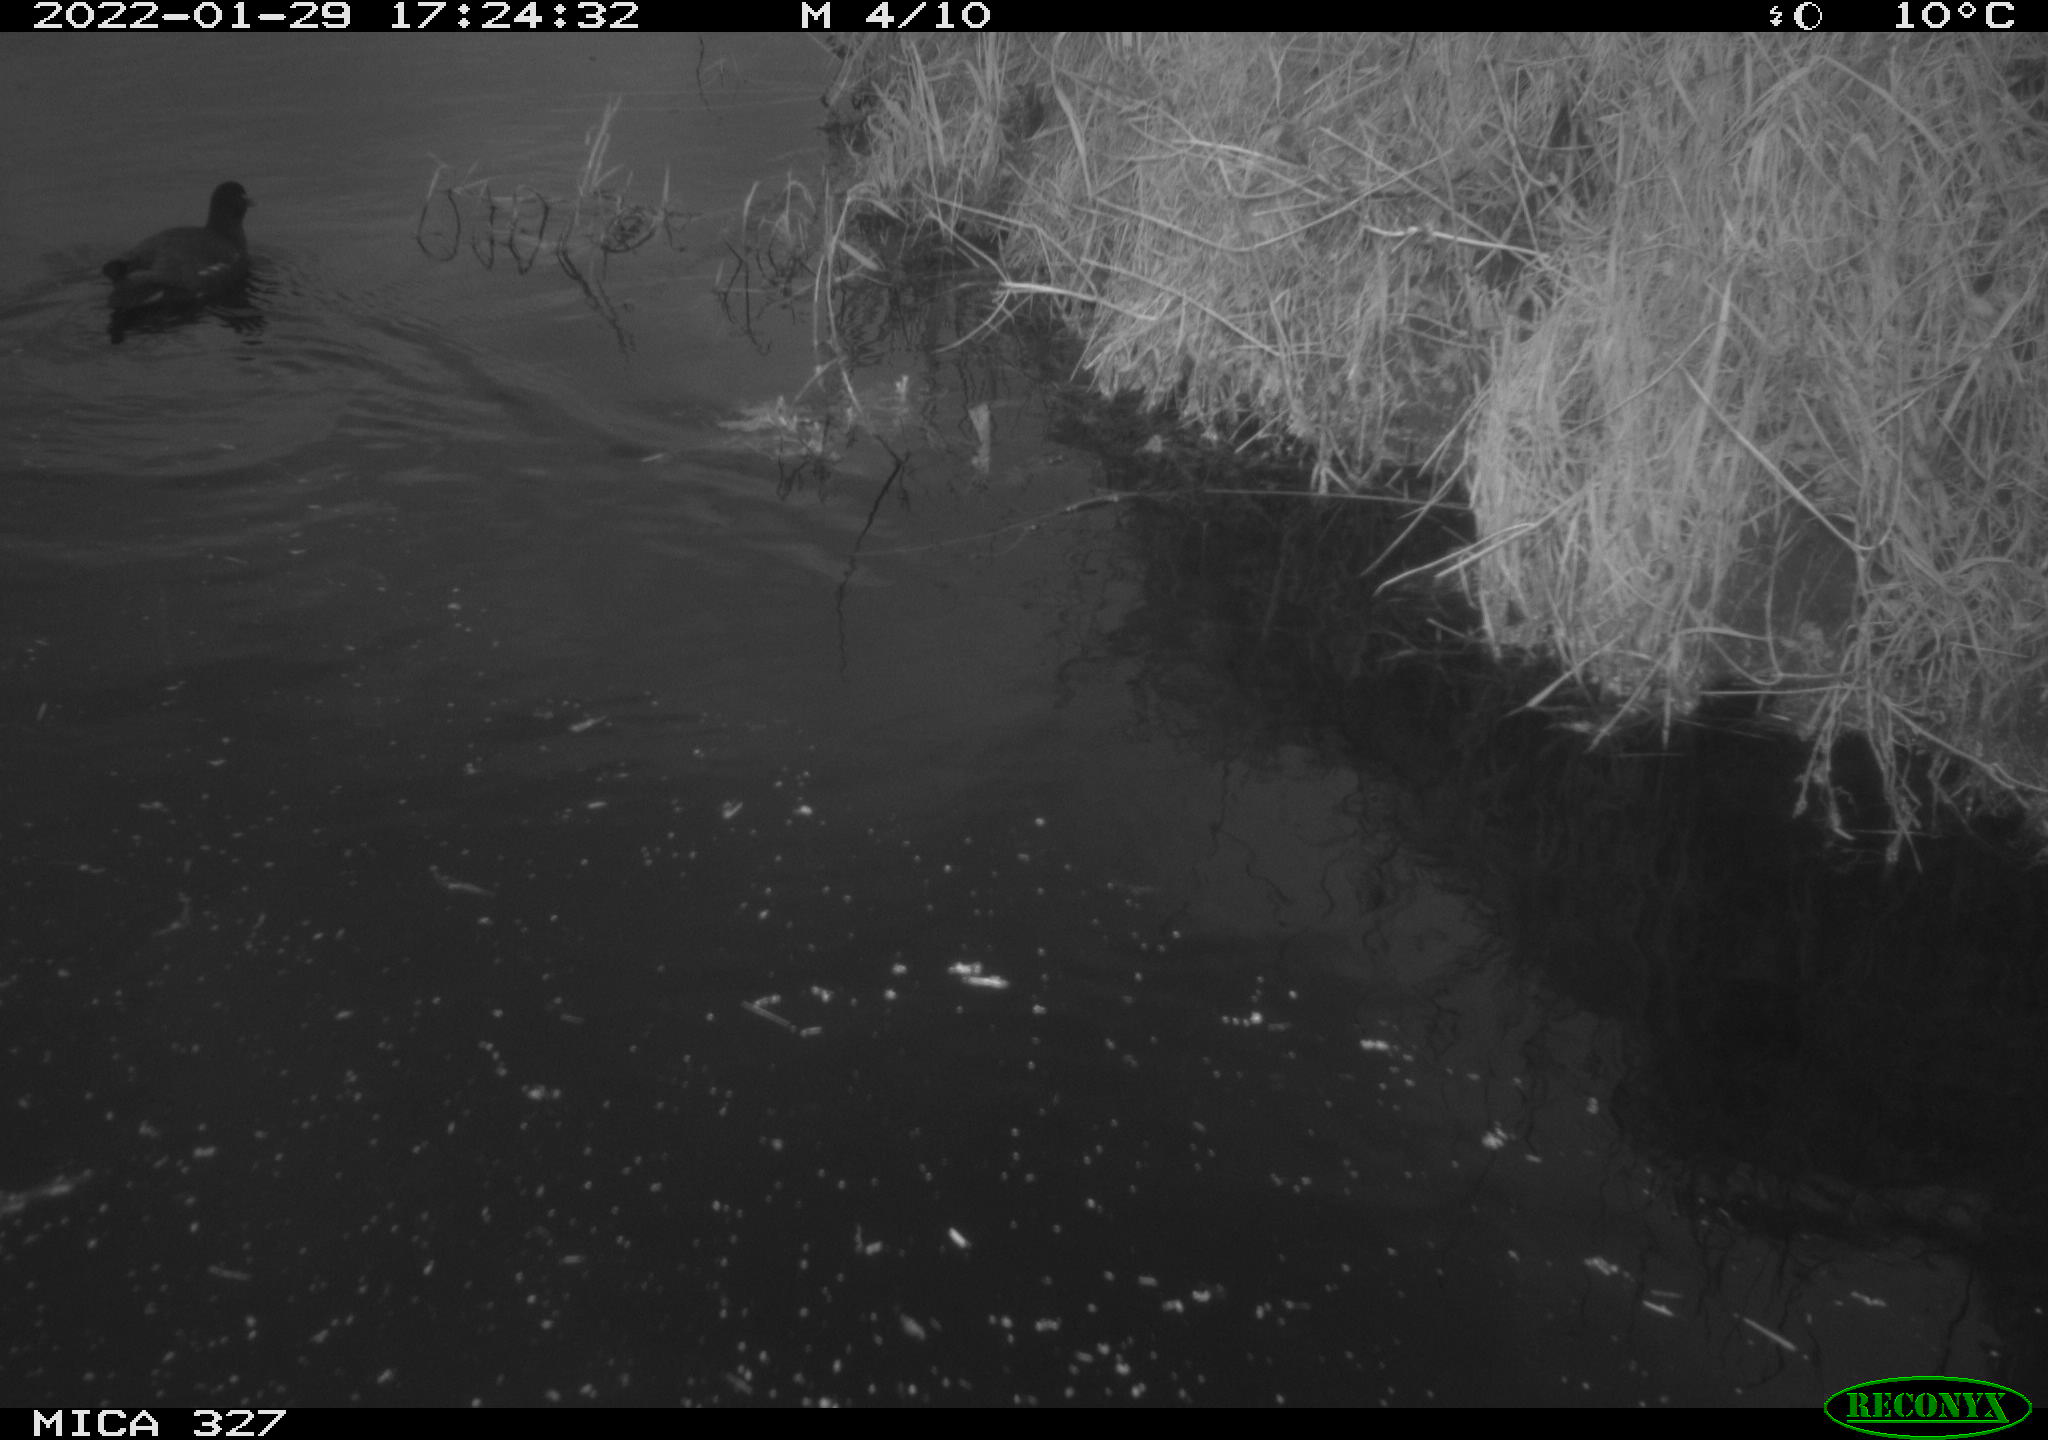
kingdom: Animalia
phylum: Chordata
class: Aves
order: Gruiformes
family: Rallidae
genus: Gallinula
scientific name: Gallinula chloropus
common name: Common moorhen
